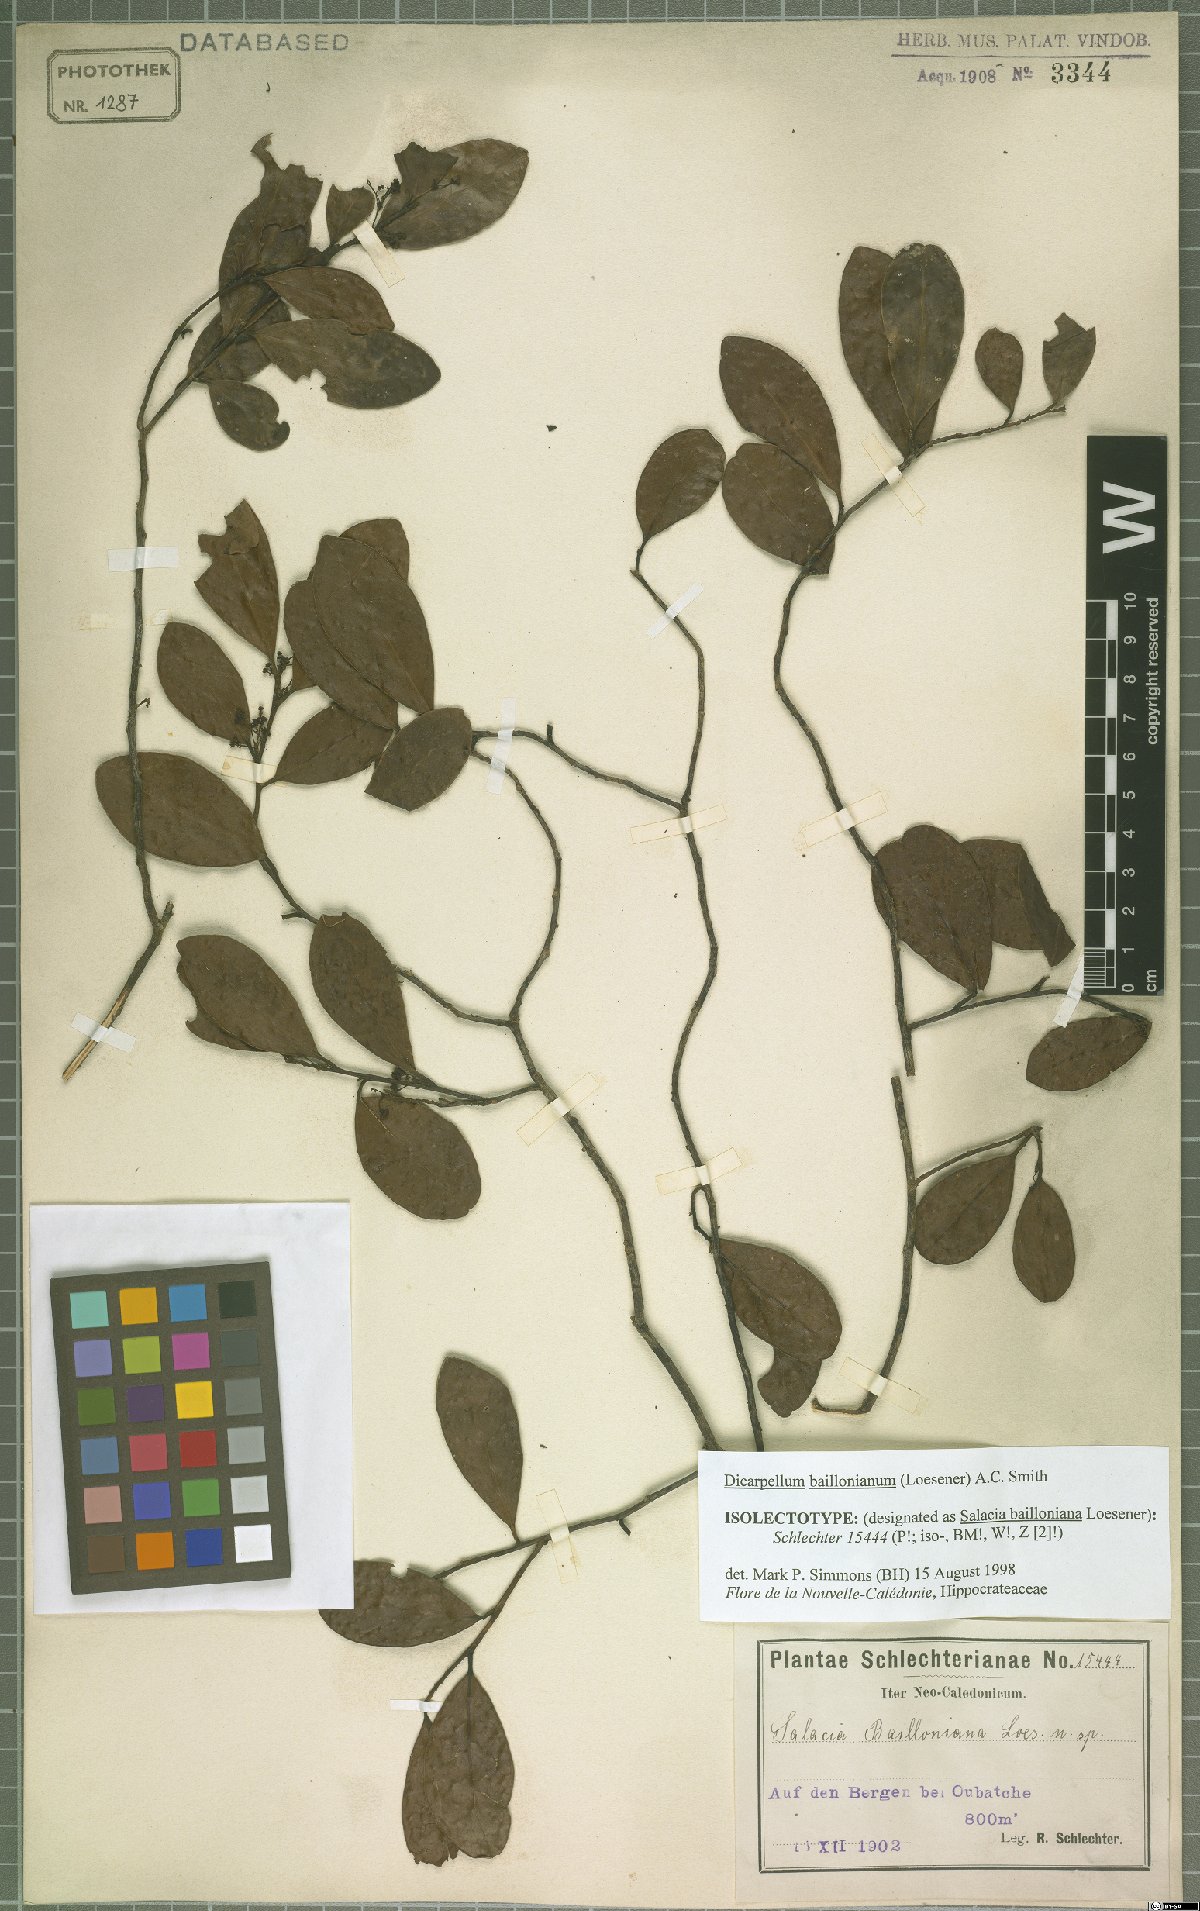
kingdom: Plantae
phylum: Tracheophyta
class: Magnoliopsida
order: Celastrales
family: Celastraceae
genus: Dicarpellum
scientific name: Dicarpellum baillonianum
